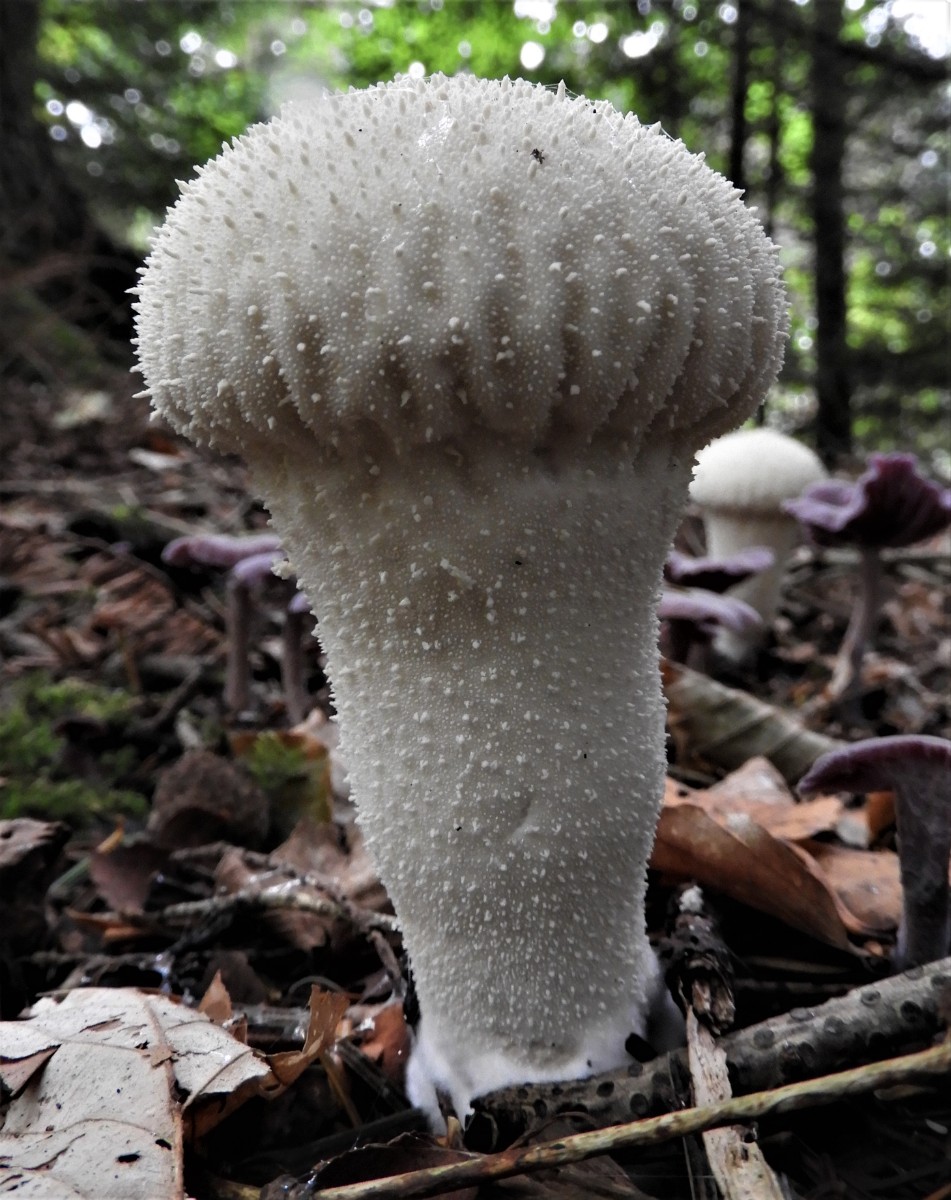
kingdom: Fungi
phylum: Basidiomycota
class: Agaricomycetes
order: Agaricales
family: Lycoperdaceae
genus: Lycoperdon
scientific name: Lycoperdon perlatum
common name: krystal-støvbold
